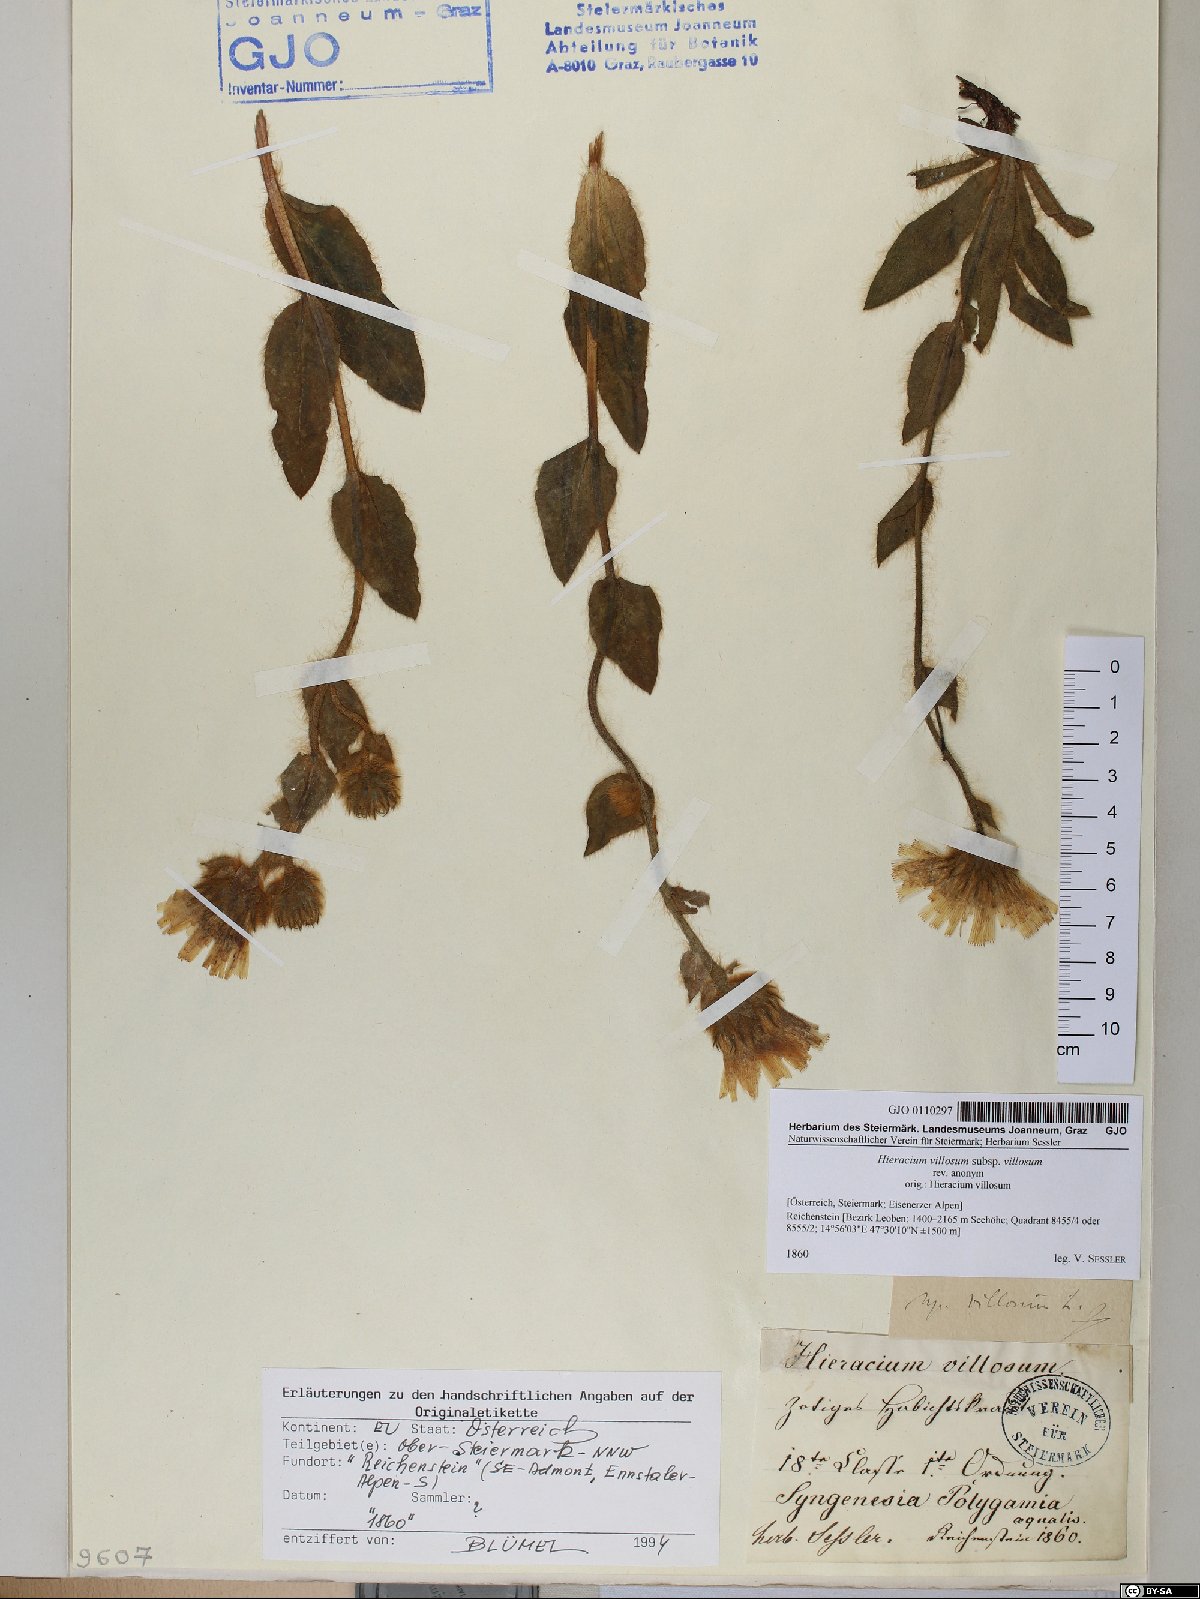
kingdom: Plantae
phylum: Tracheophyta
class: Magnoliopsida
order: Asterales
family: Asteraceae
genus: Hieracium
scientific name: Hieracium villosum
